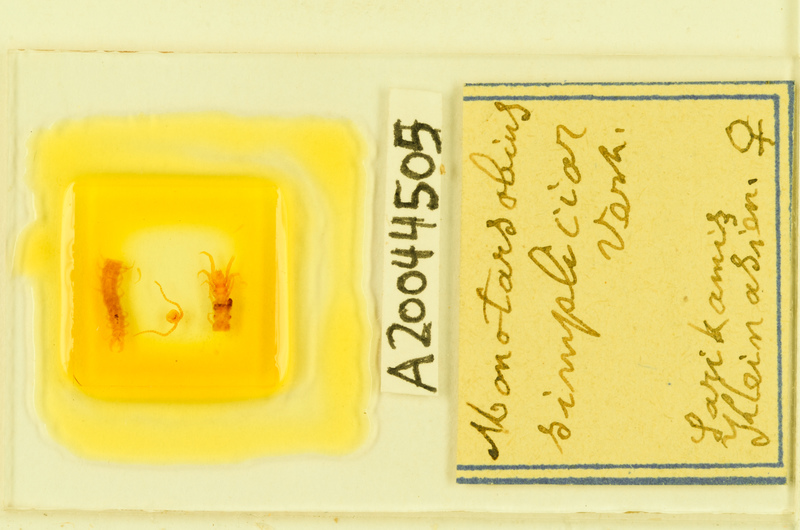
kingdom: Animalia
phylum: Arthropoda
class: Chilopoda
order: Lithobiomorpha
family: Lithobiidae
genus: Monotarsobius
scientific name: Monotarsobius
